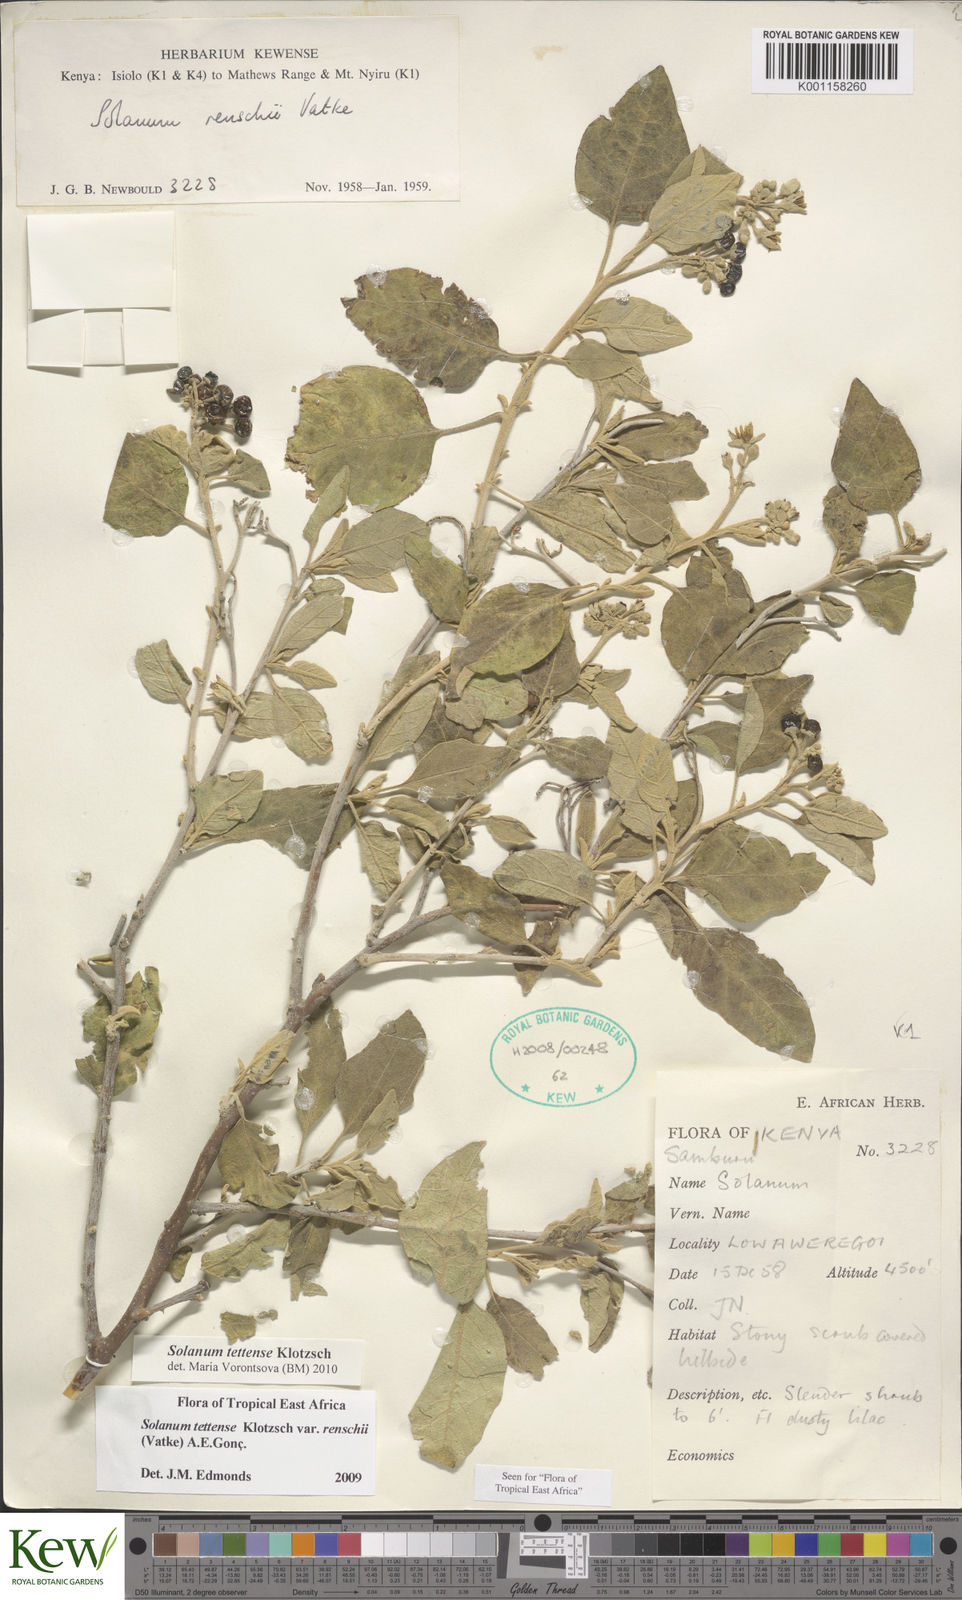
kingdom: Plantae
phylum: Tracheophyta
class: Magnoliopsida
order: Solanales
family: Solanaceae
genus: Solanum
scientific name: Solanum tettense
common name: Mozambique bitter apple
